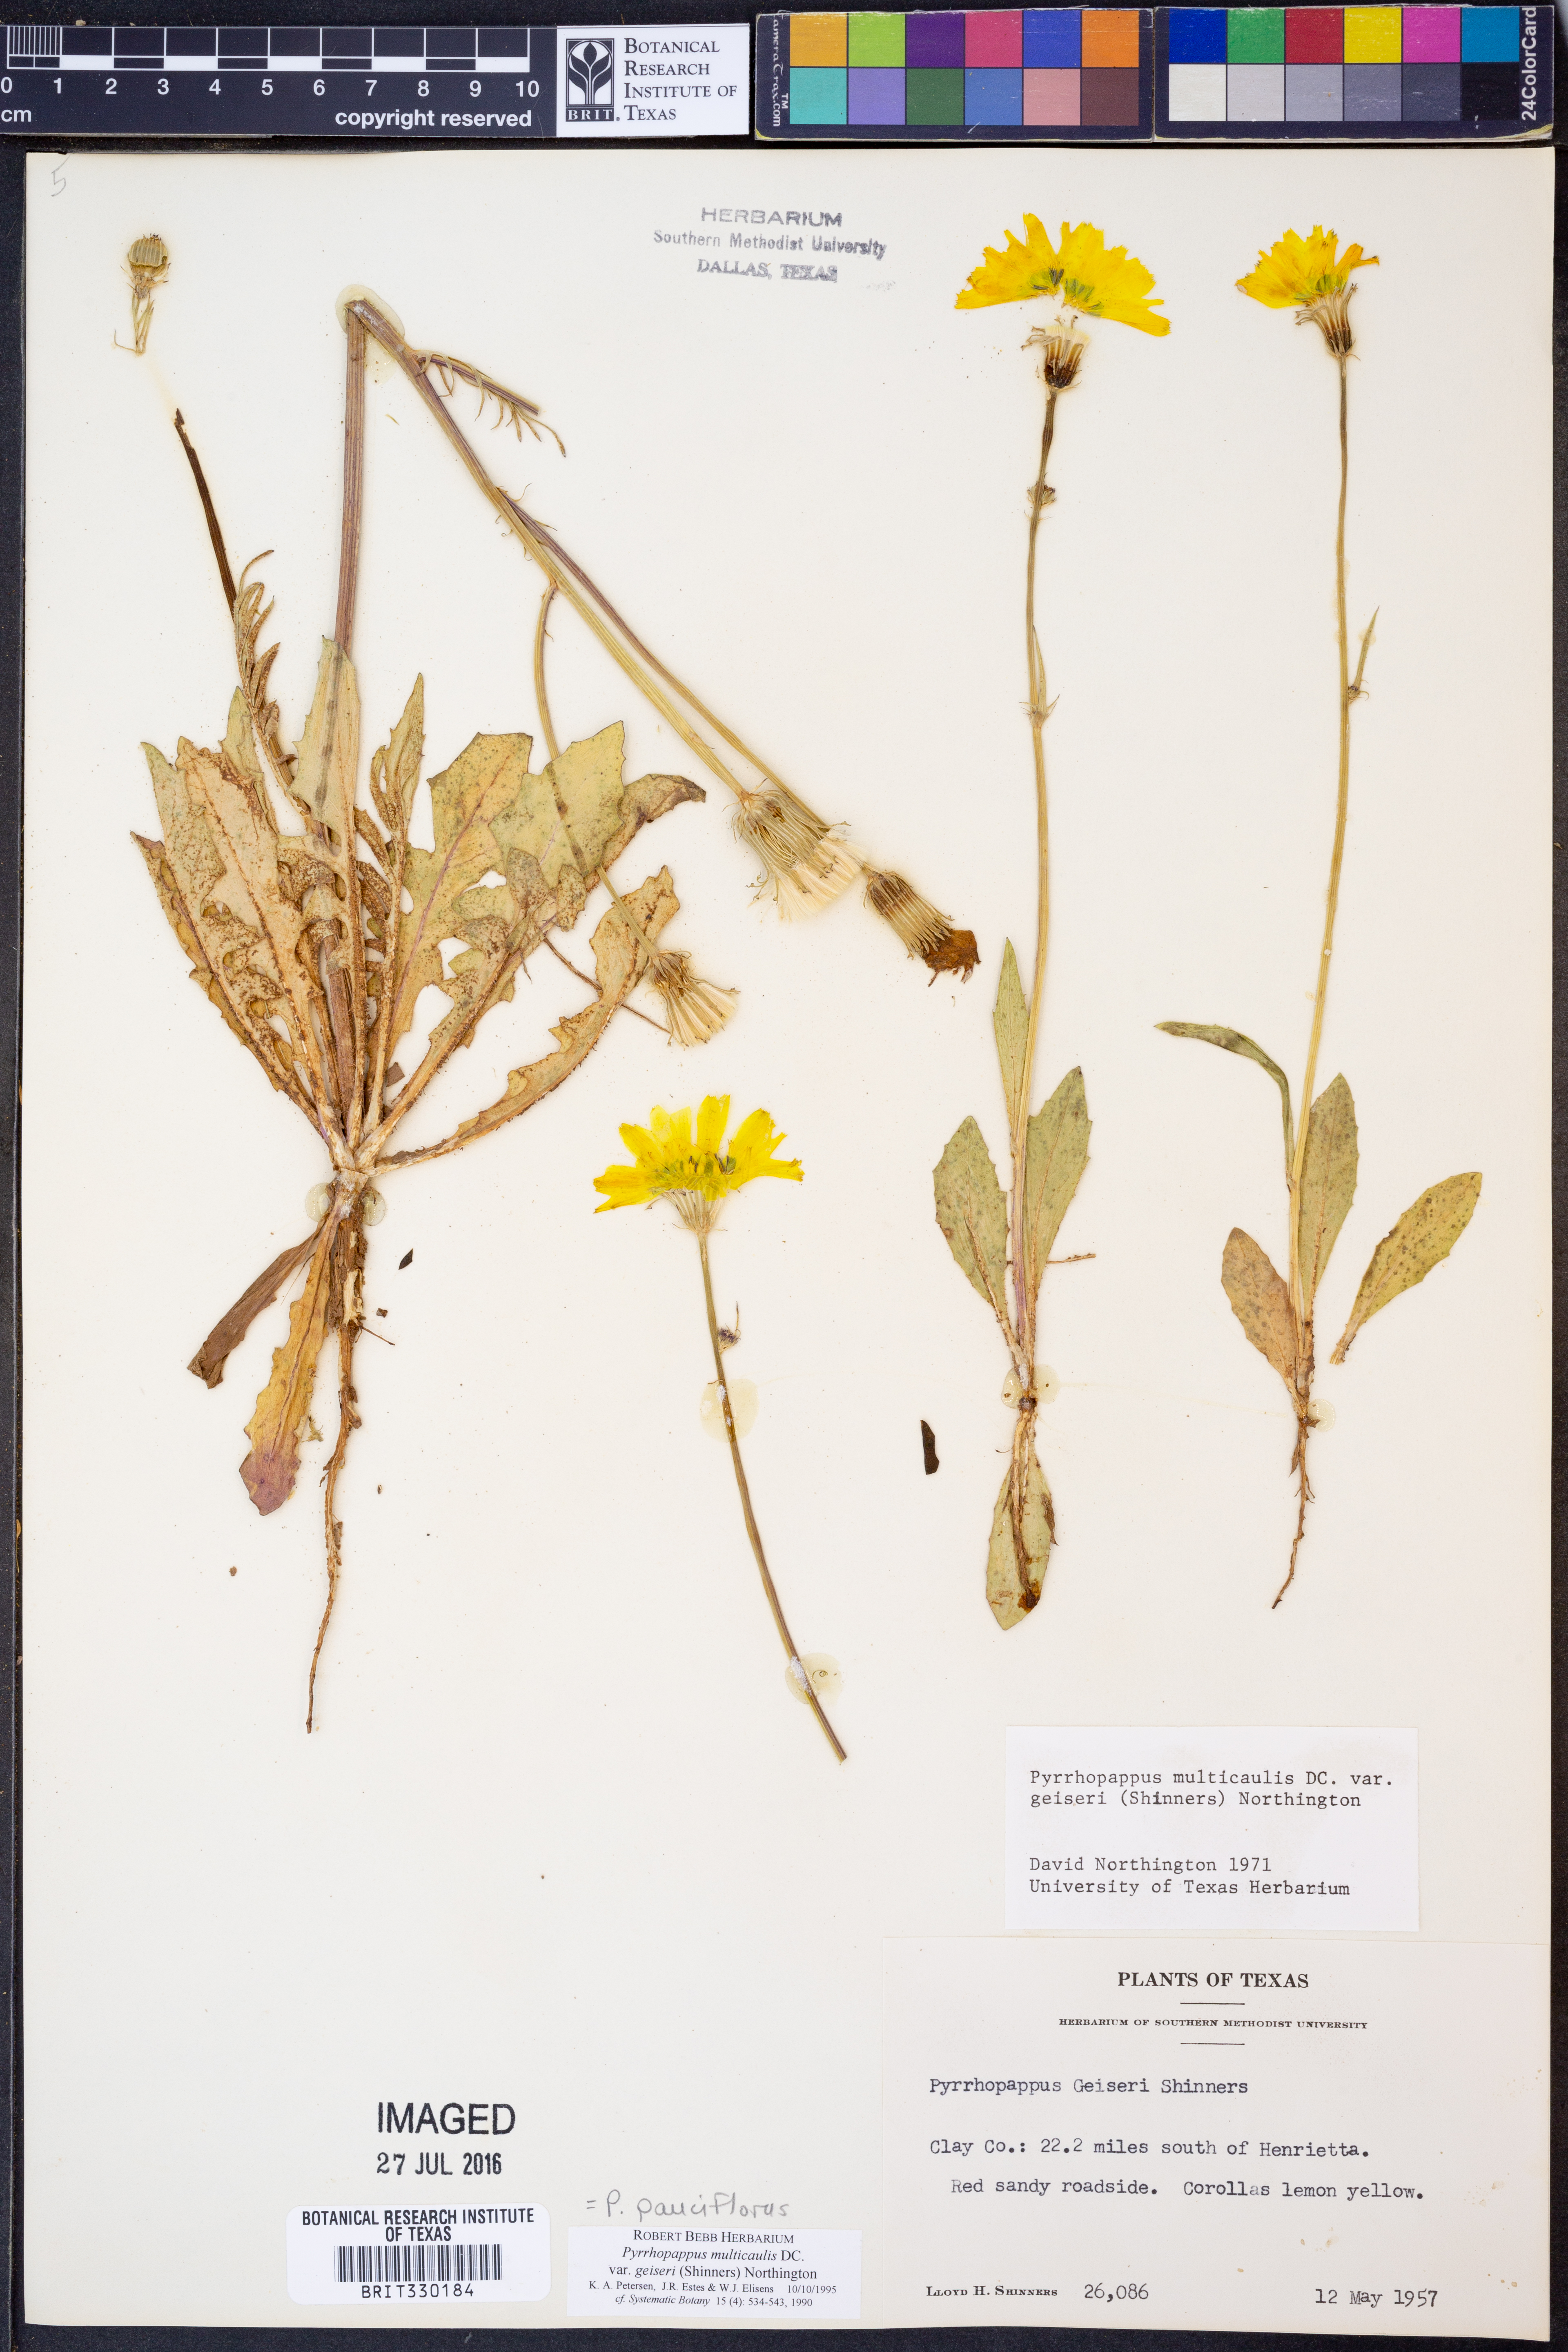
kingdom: Plantae
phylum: Tracheophyta
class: Magnoliopsida
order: Asterales
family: Asteraceae
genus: Pyrrhopappus
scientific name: Pyrrhopappus pauciflorus
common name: Texas false dandelion
